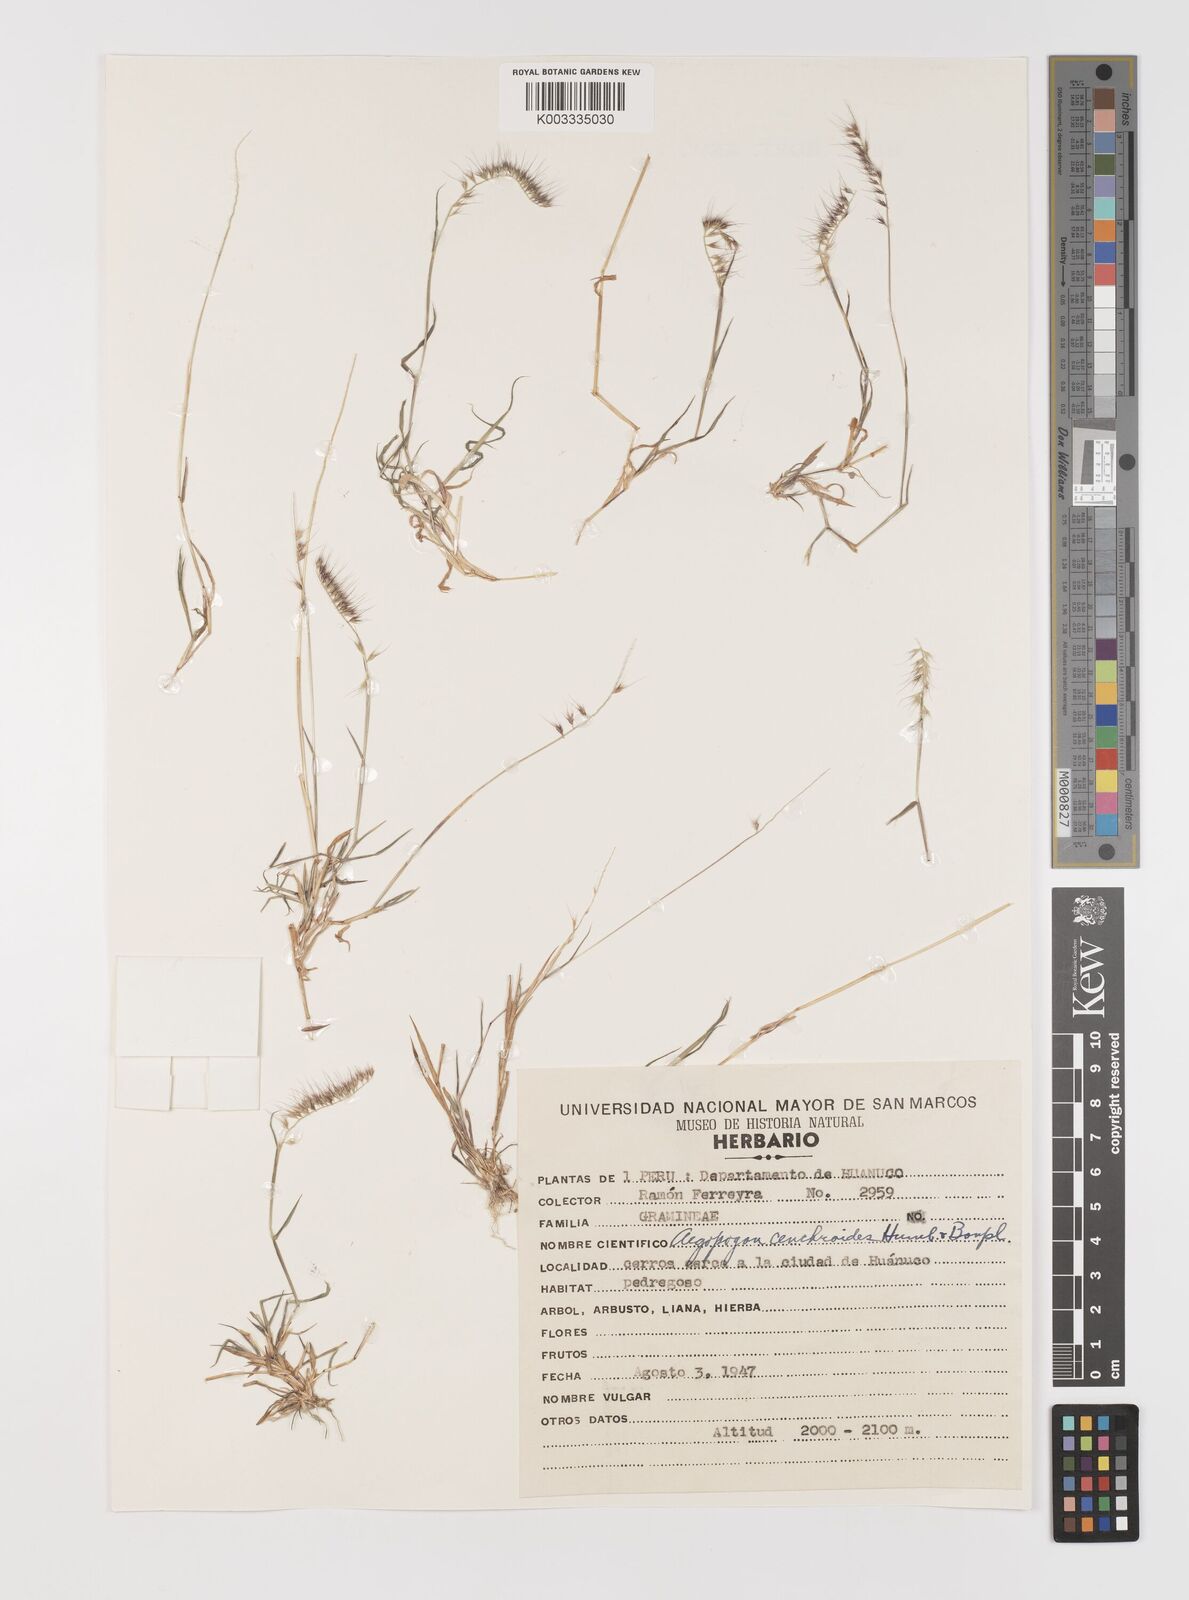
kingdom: Plantae
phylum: Tracheophyta
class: Liliopsida
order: Poales
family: Poaceae
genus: Muhlenbergia
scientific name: Muhlenbergia cenchroides
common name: Relaxgrass
